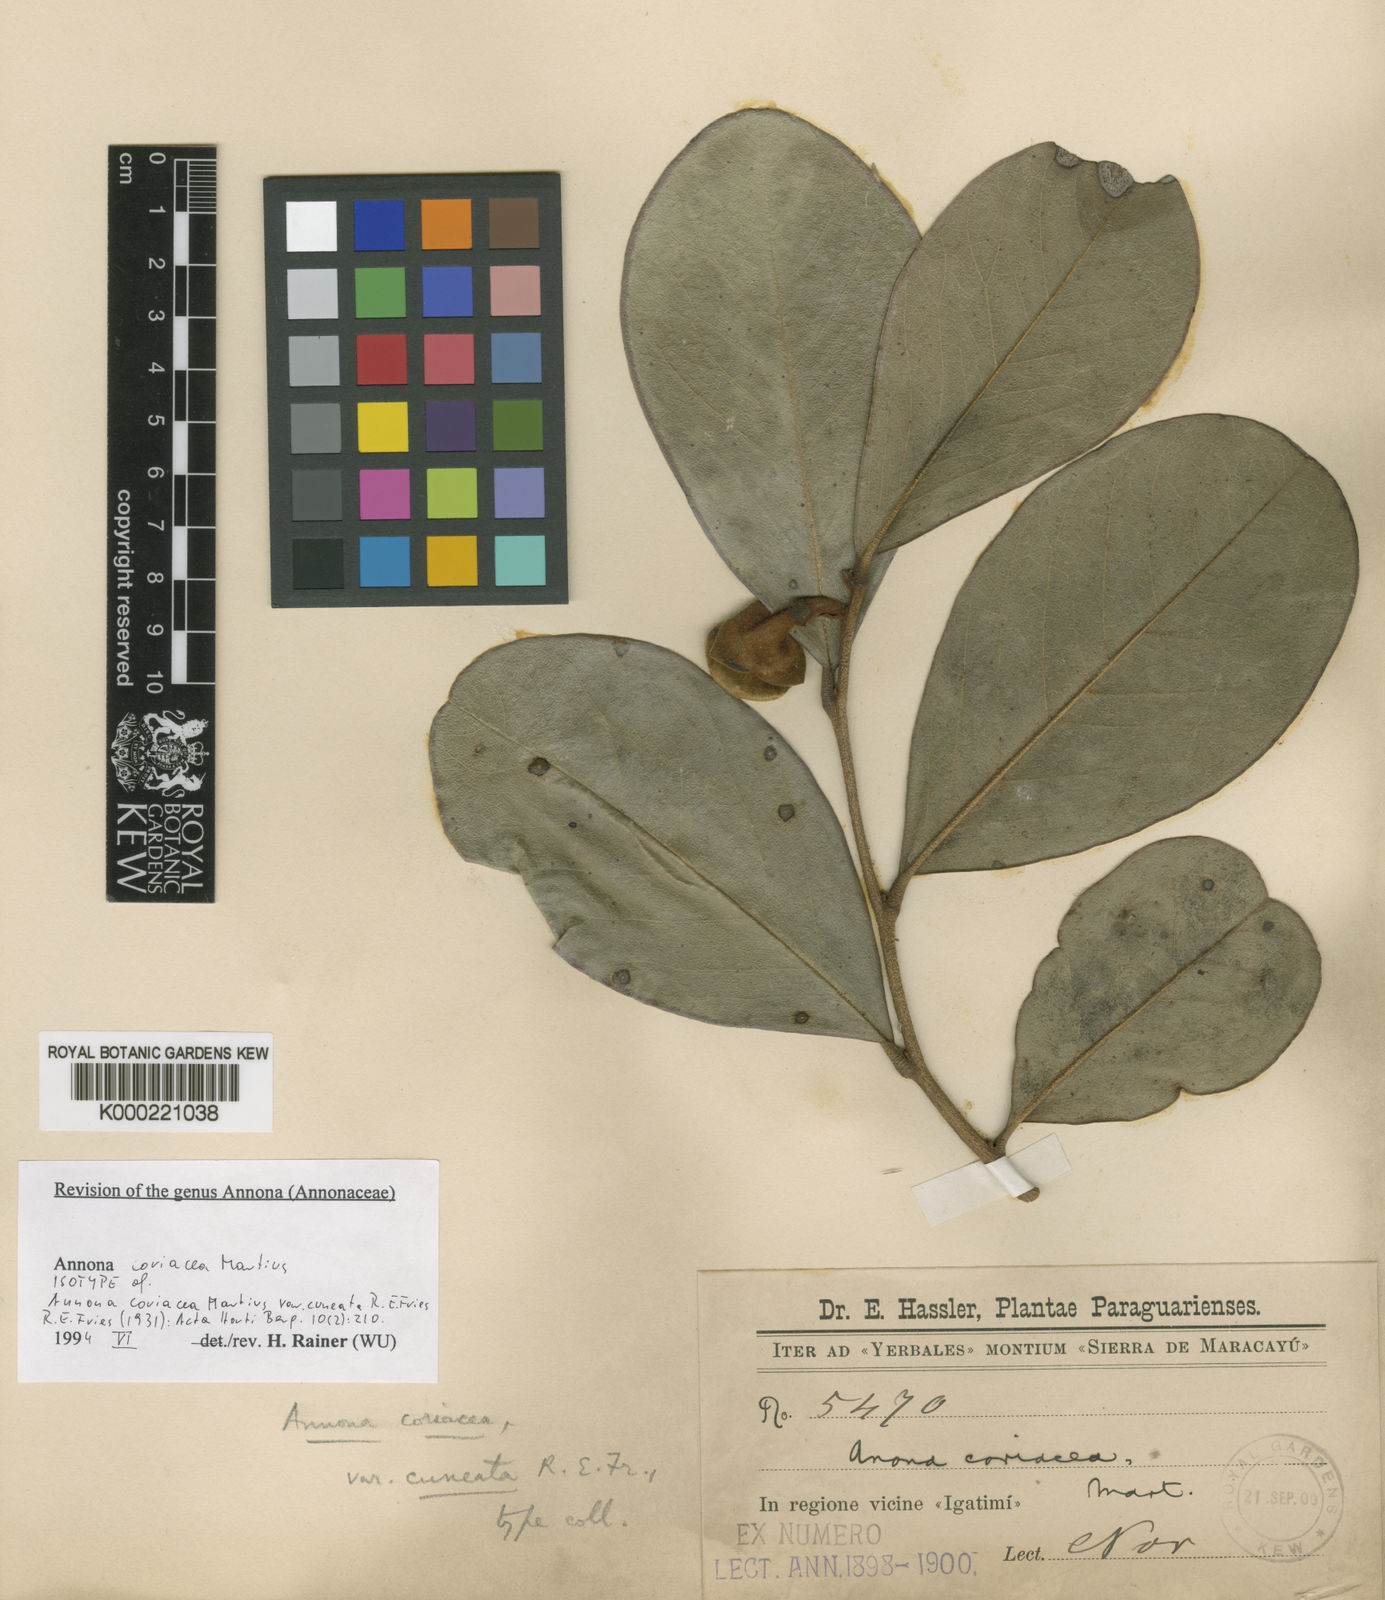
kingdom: Plantae
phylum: Tracheophyta
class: Magnoliopsida
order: Magnoliales
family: Annonaceae
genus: Annona
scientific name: Annona coriacea
